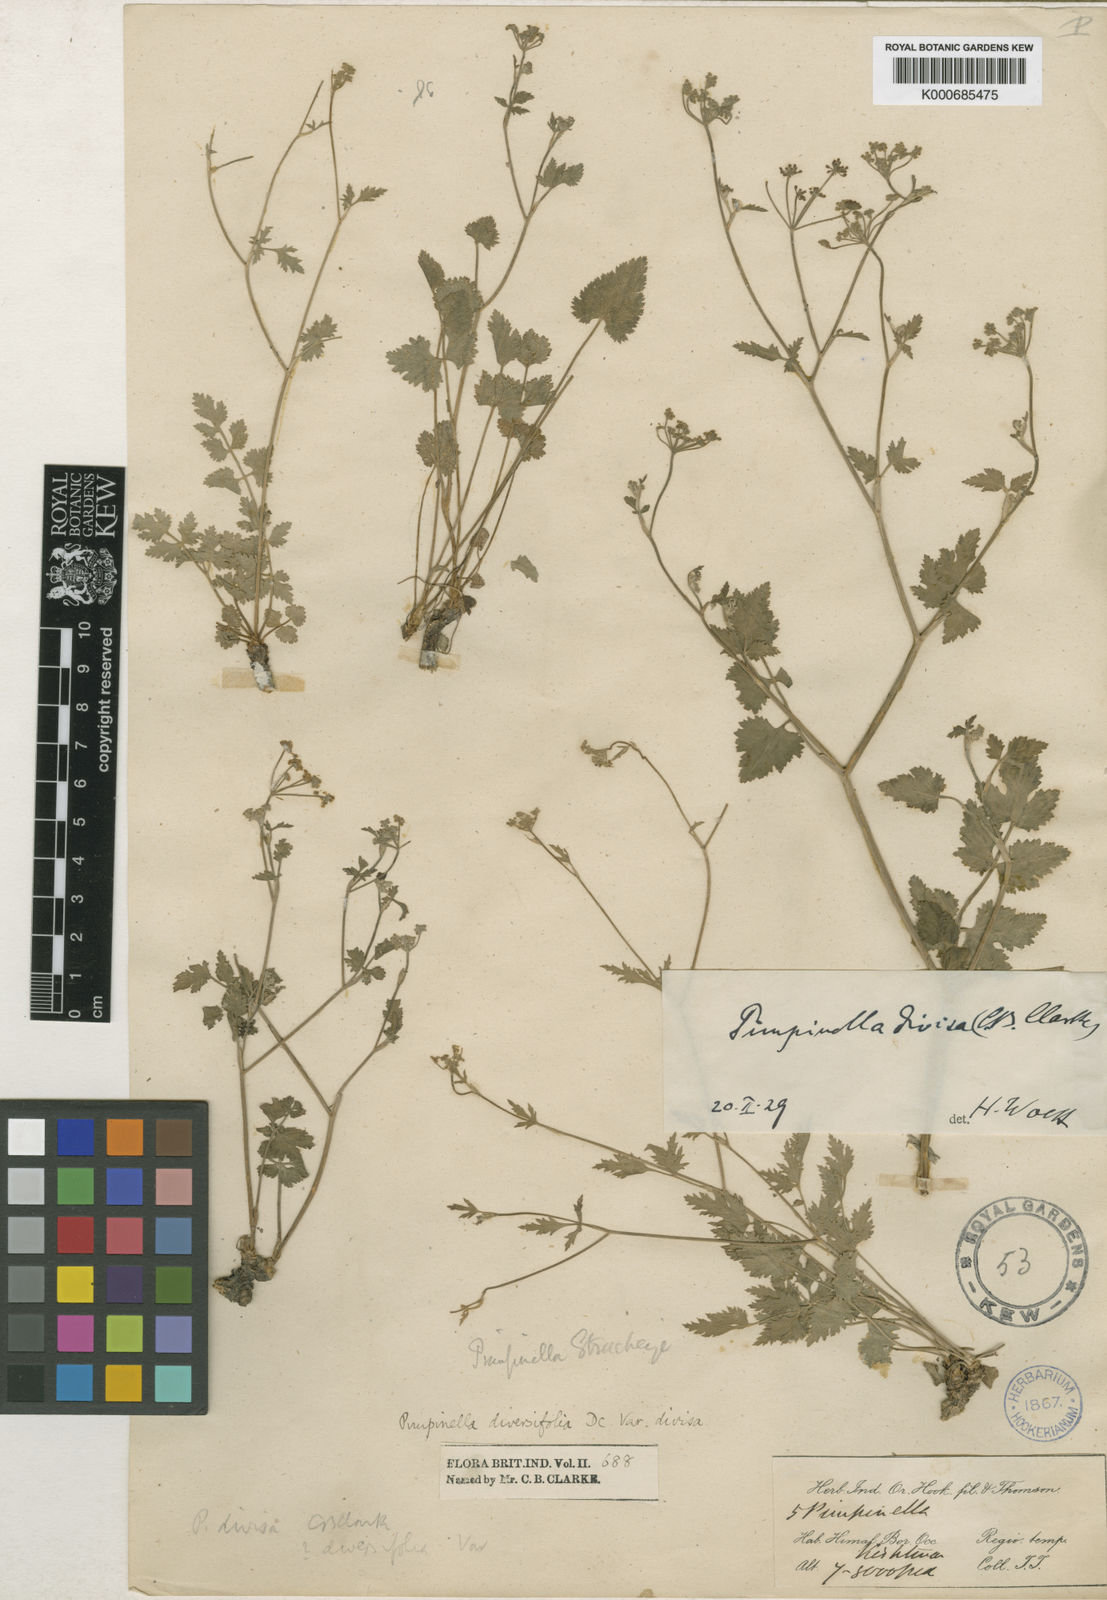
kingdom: Plantae
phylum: Tracheophyta
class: Magnoliopsida
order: Apiales
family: Apiaceae
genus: Pimpinella
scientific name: Pimpinella
